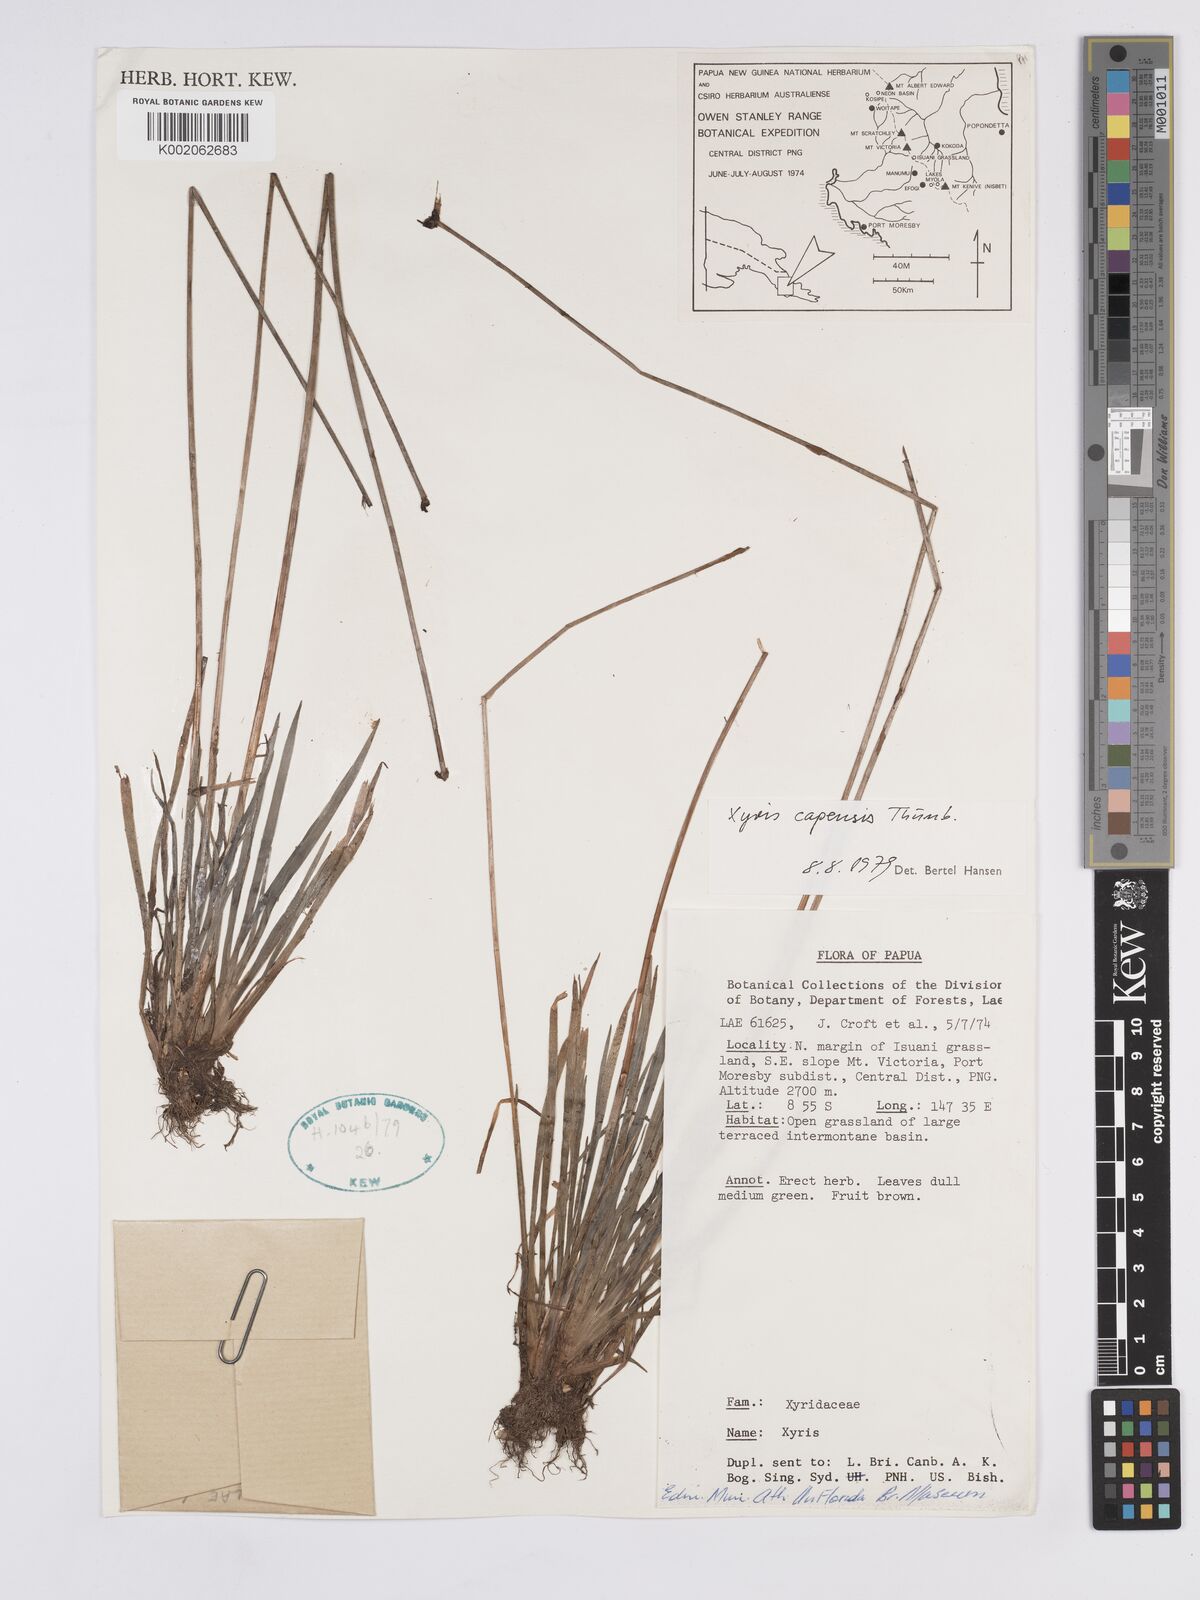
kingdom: Plantae
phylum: Tracheophyta
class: Liliopsida
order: Poales
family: Xyridaceae
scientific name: Xyridaceae
